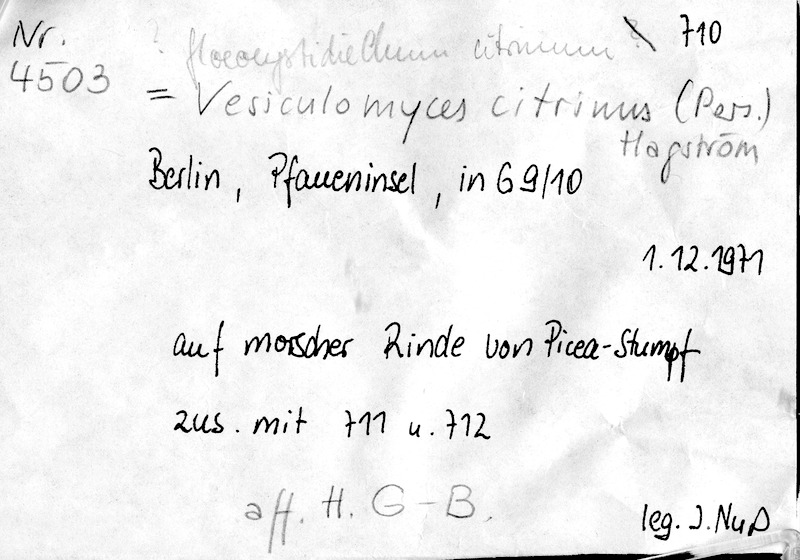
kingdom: Fungi
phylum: Basidiomycota
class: Agaricomycetes
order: Russulales
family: Peniophoraceae
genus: Gloiothele
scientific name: Gloiothele citrina
